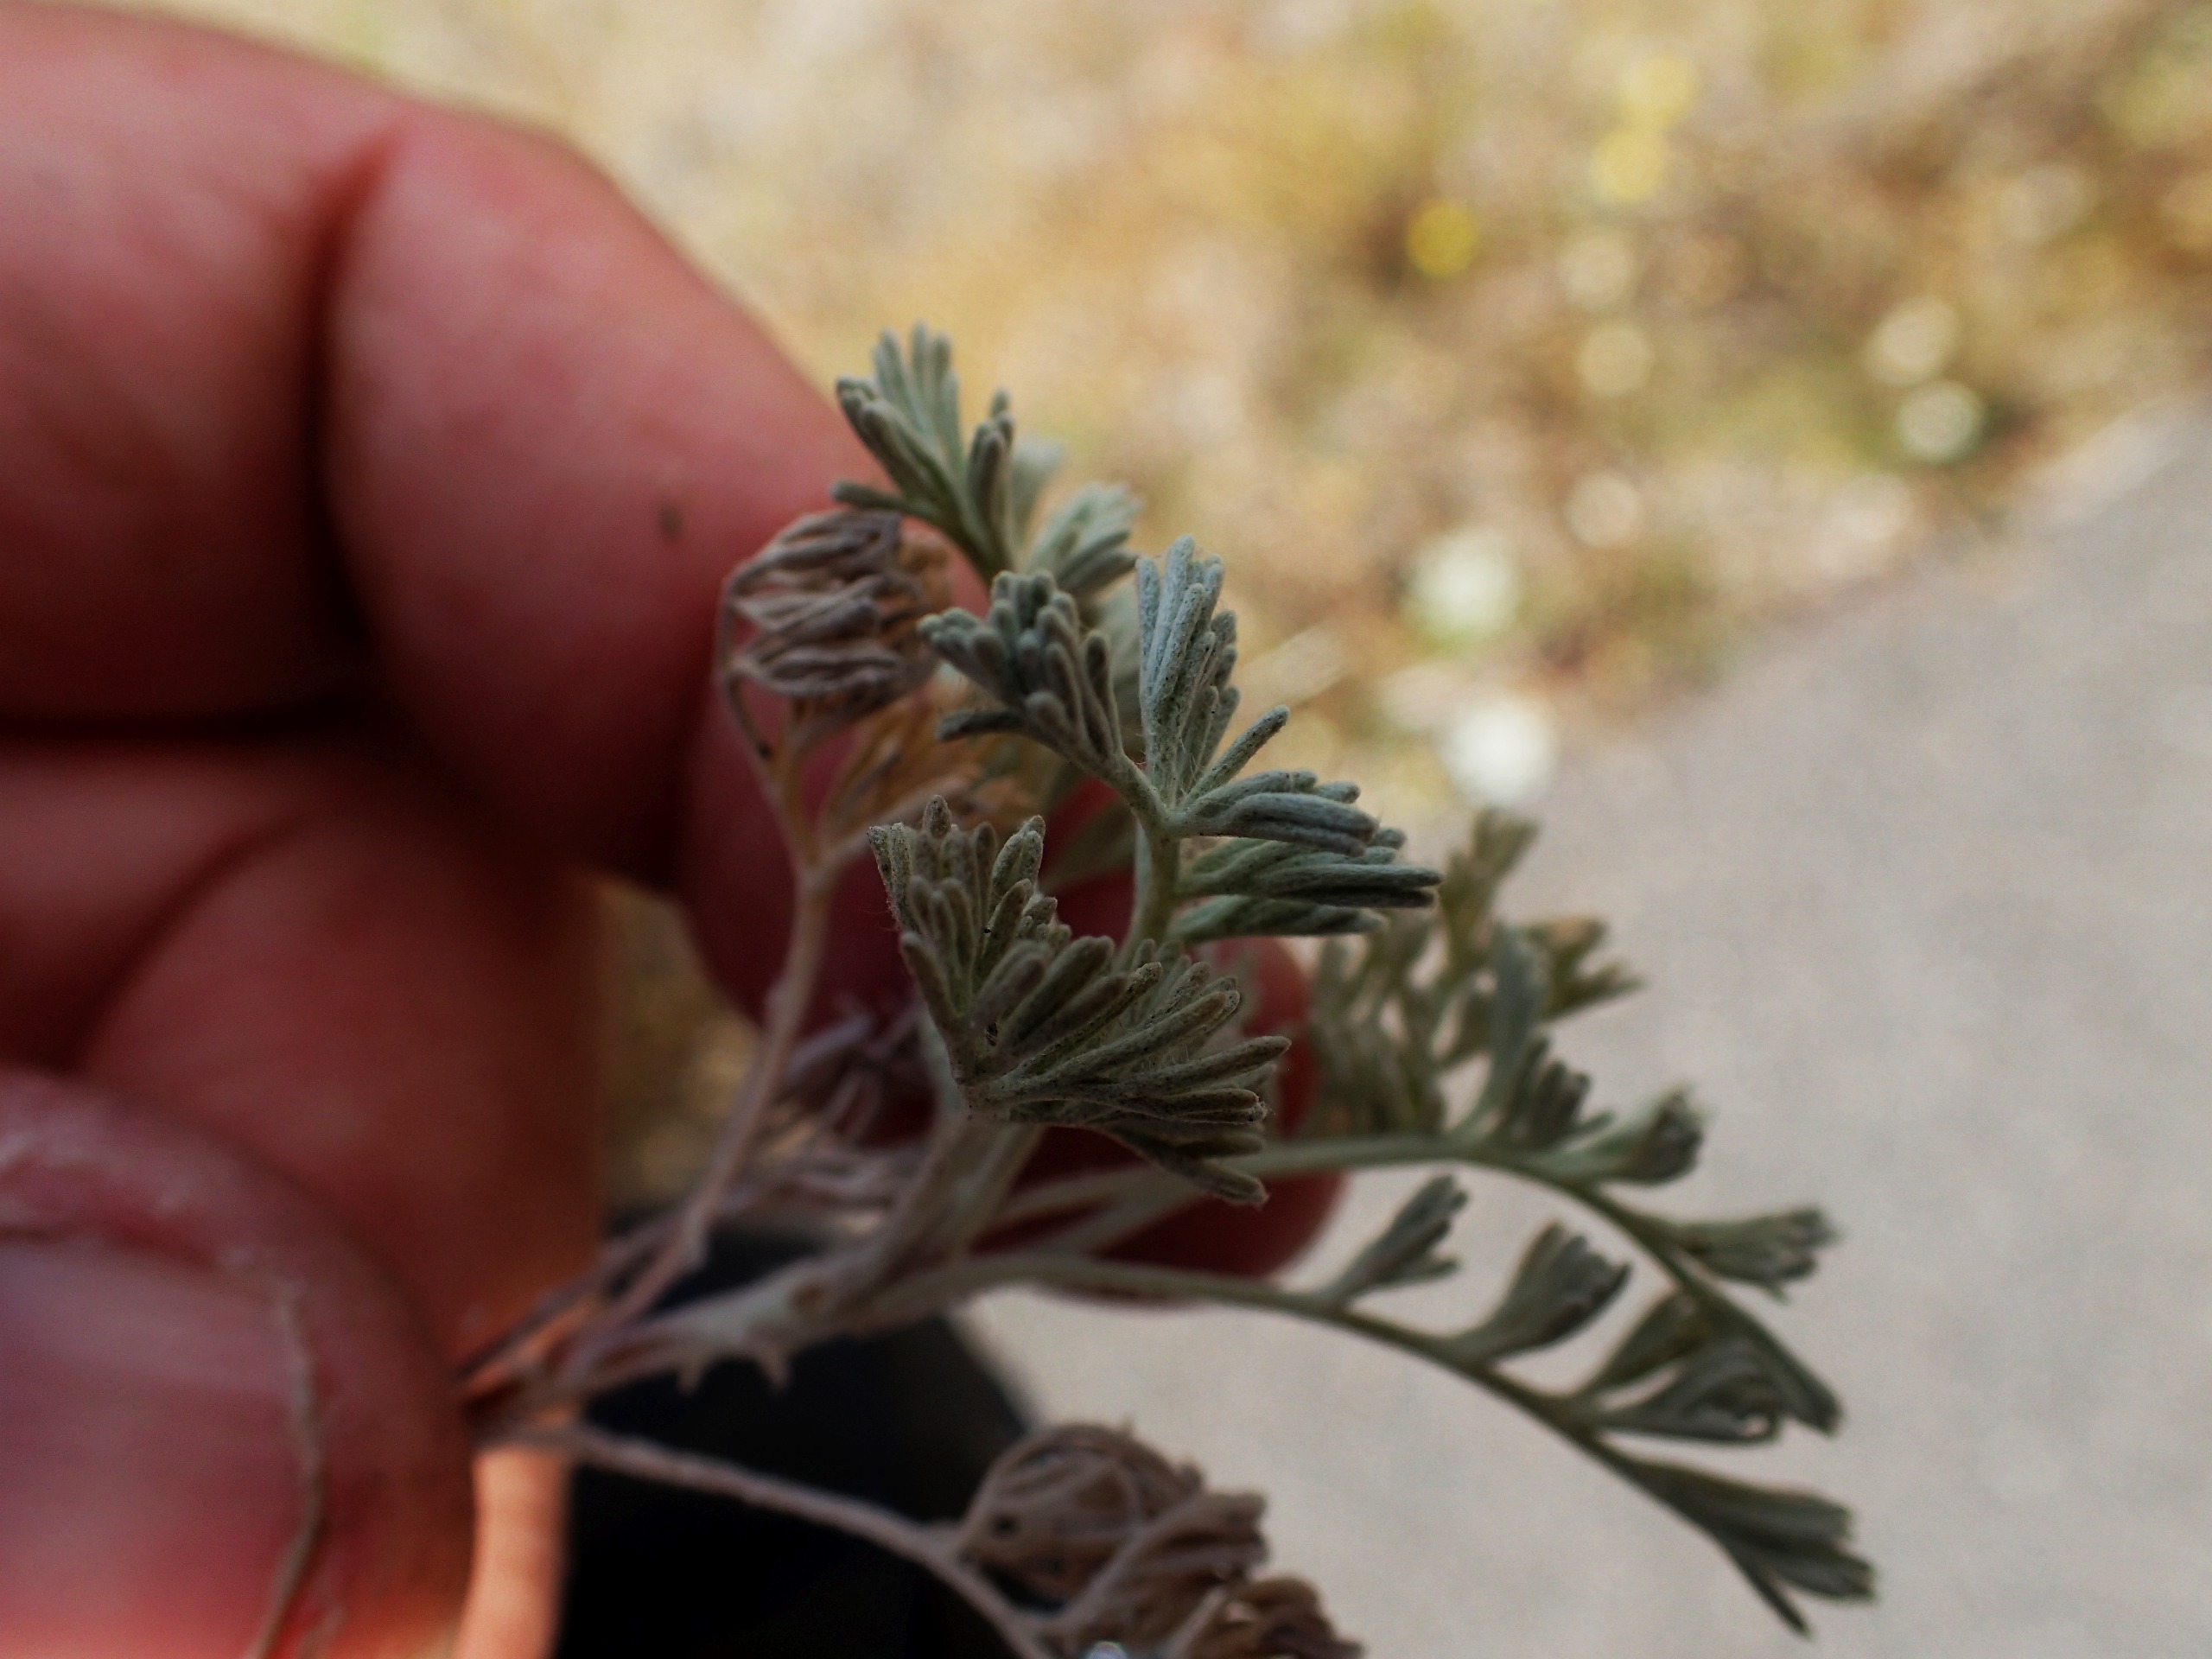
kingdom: Plantae
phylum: Tracheophyta
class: Magnoliopsida
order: Asterales
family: Asteraceae
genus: Artemisia
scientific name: Artemisia maritima
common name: Strandmalurt
